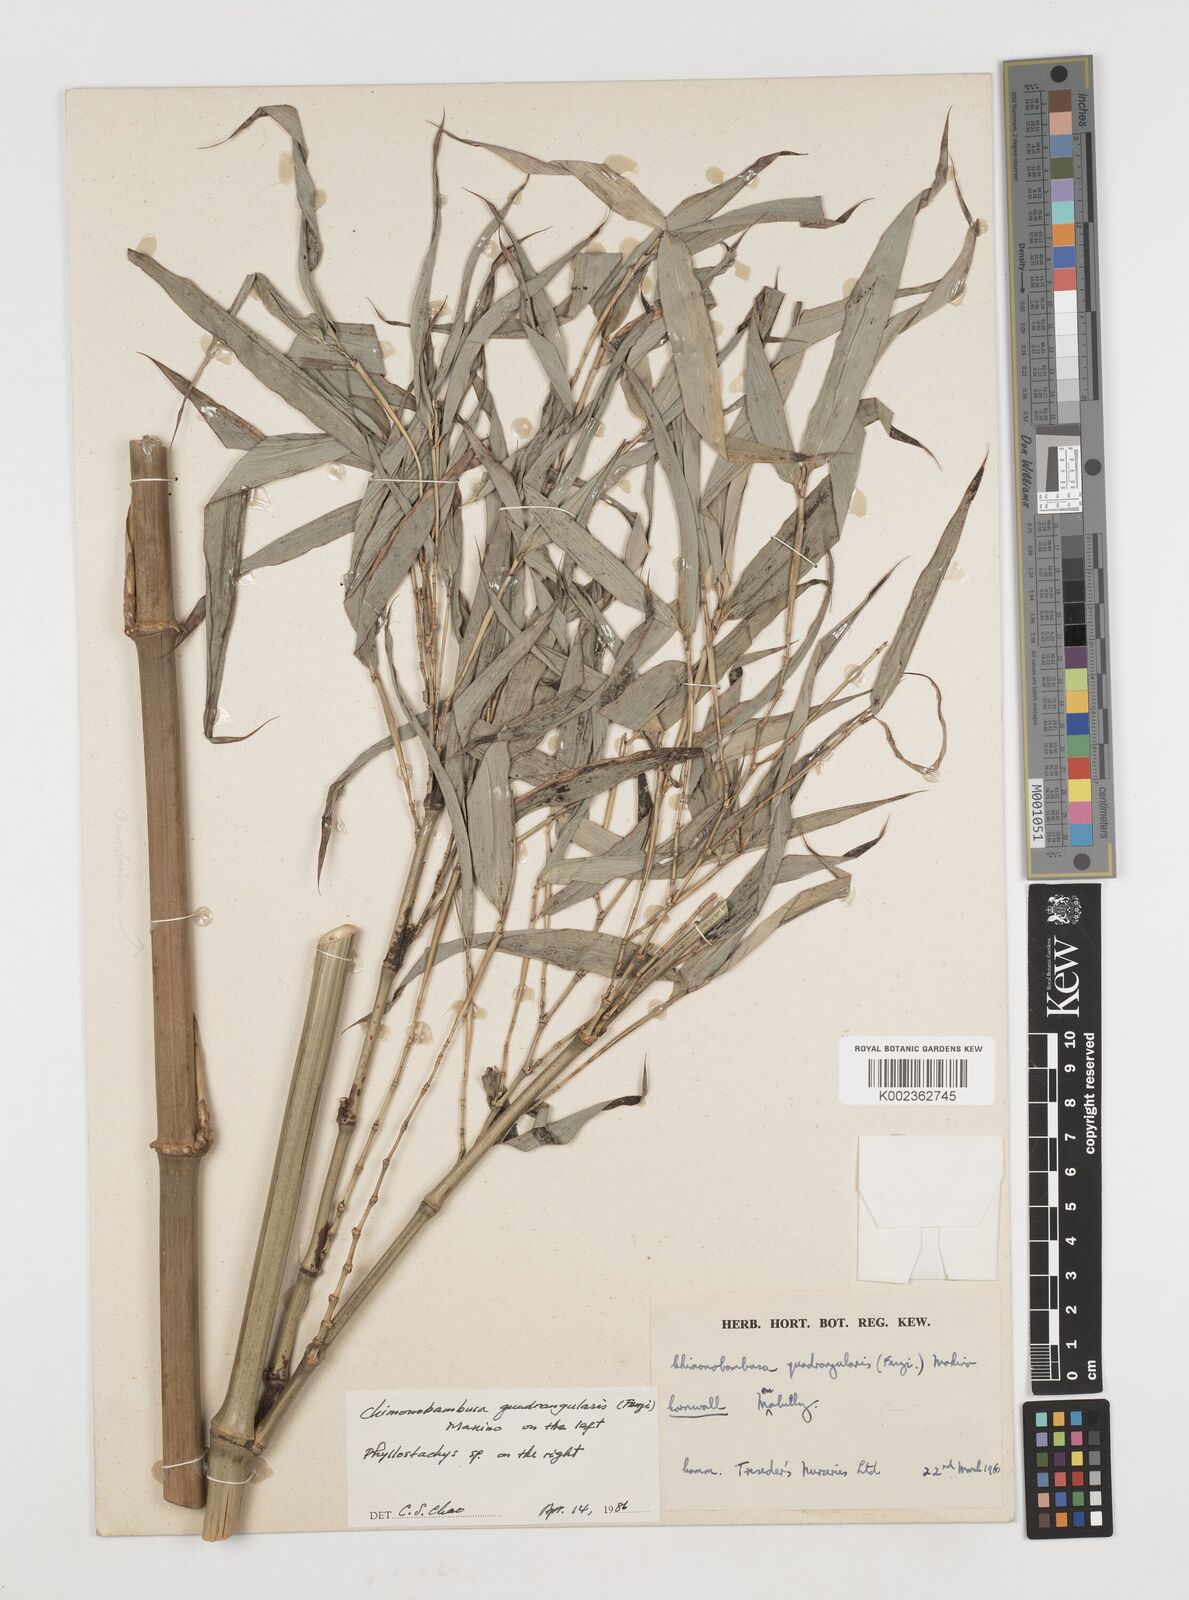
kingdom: Plantae
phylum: Tracheophyta
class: Liliopsida
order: Poales
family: Poaceae
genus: Chimonobambusa
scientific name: Chimonobambusa quadrangularis
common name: Square-stemmed bamboo
